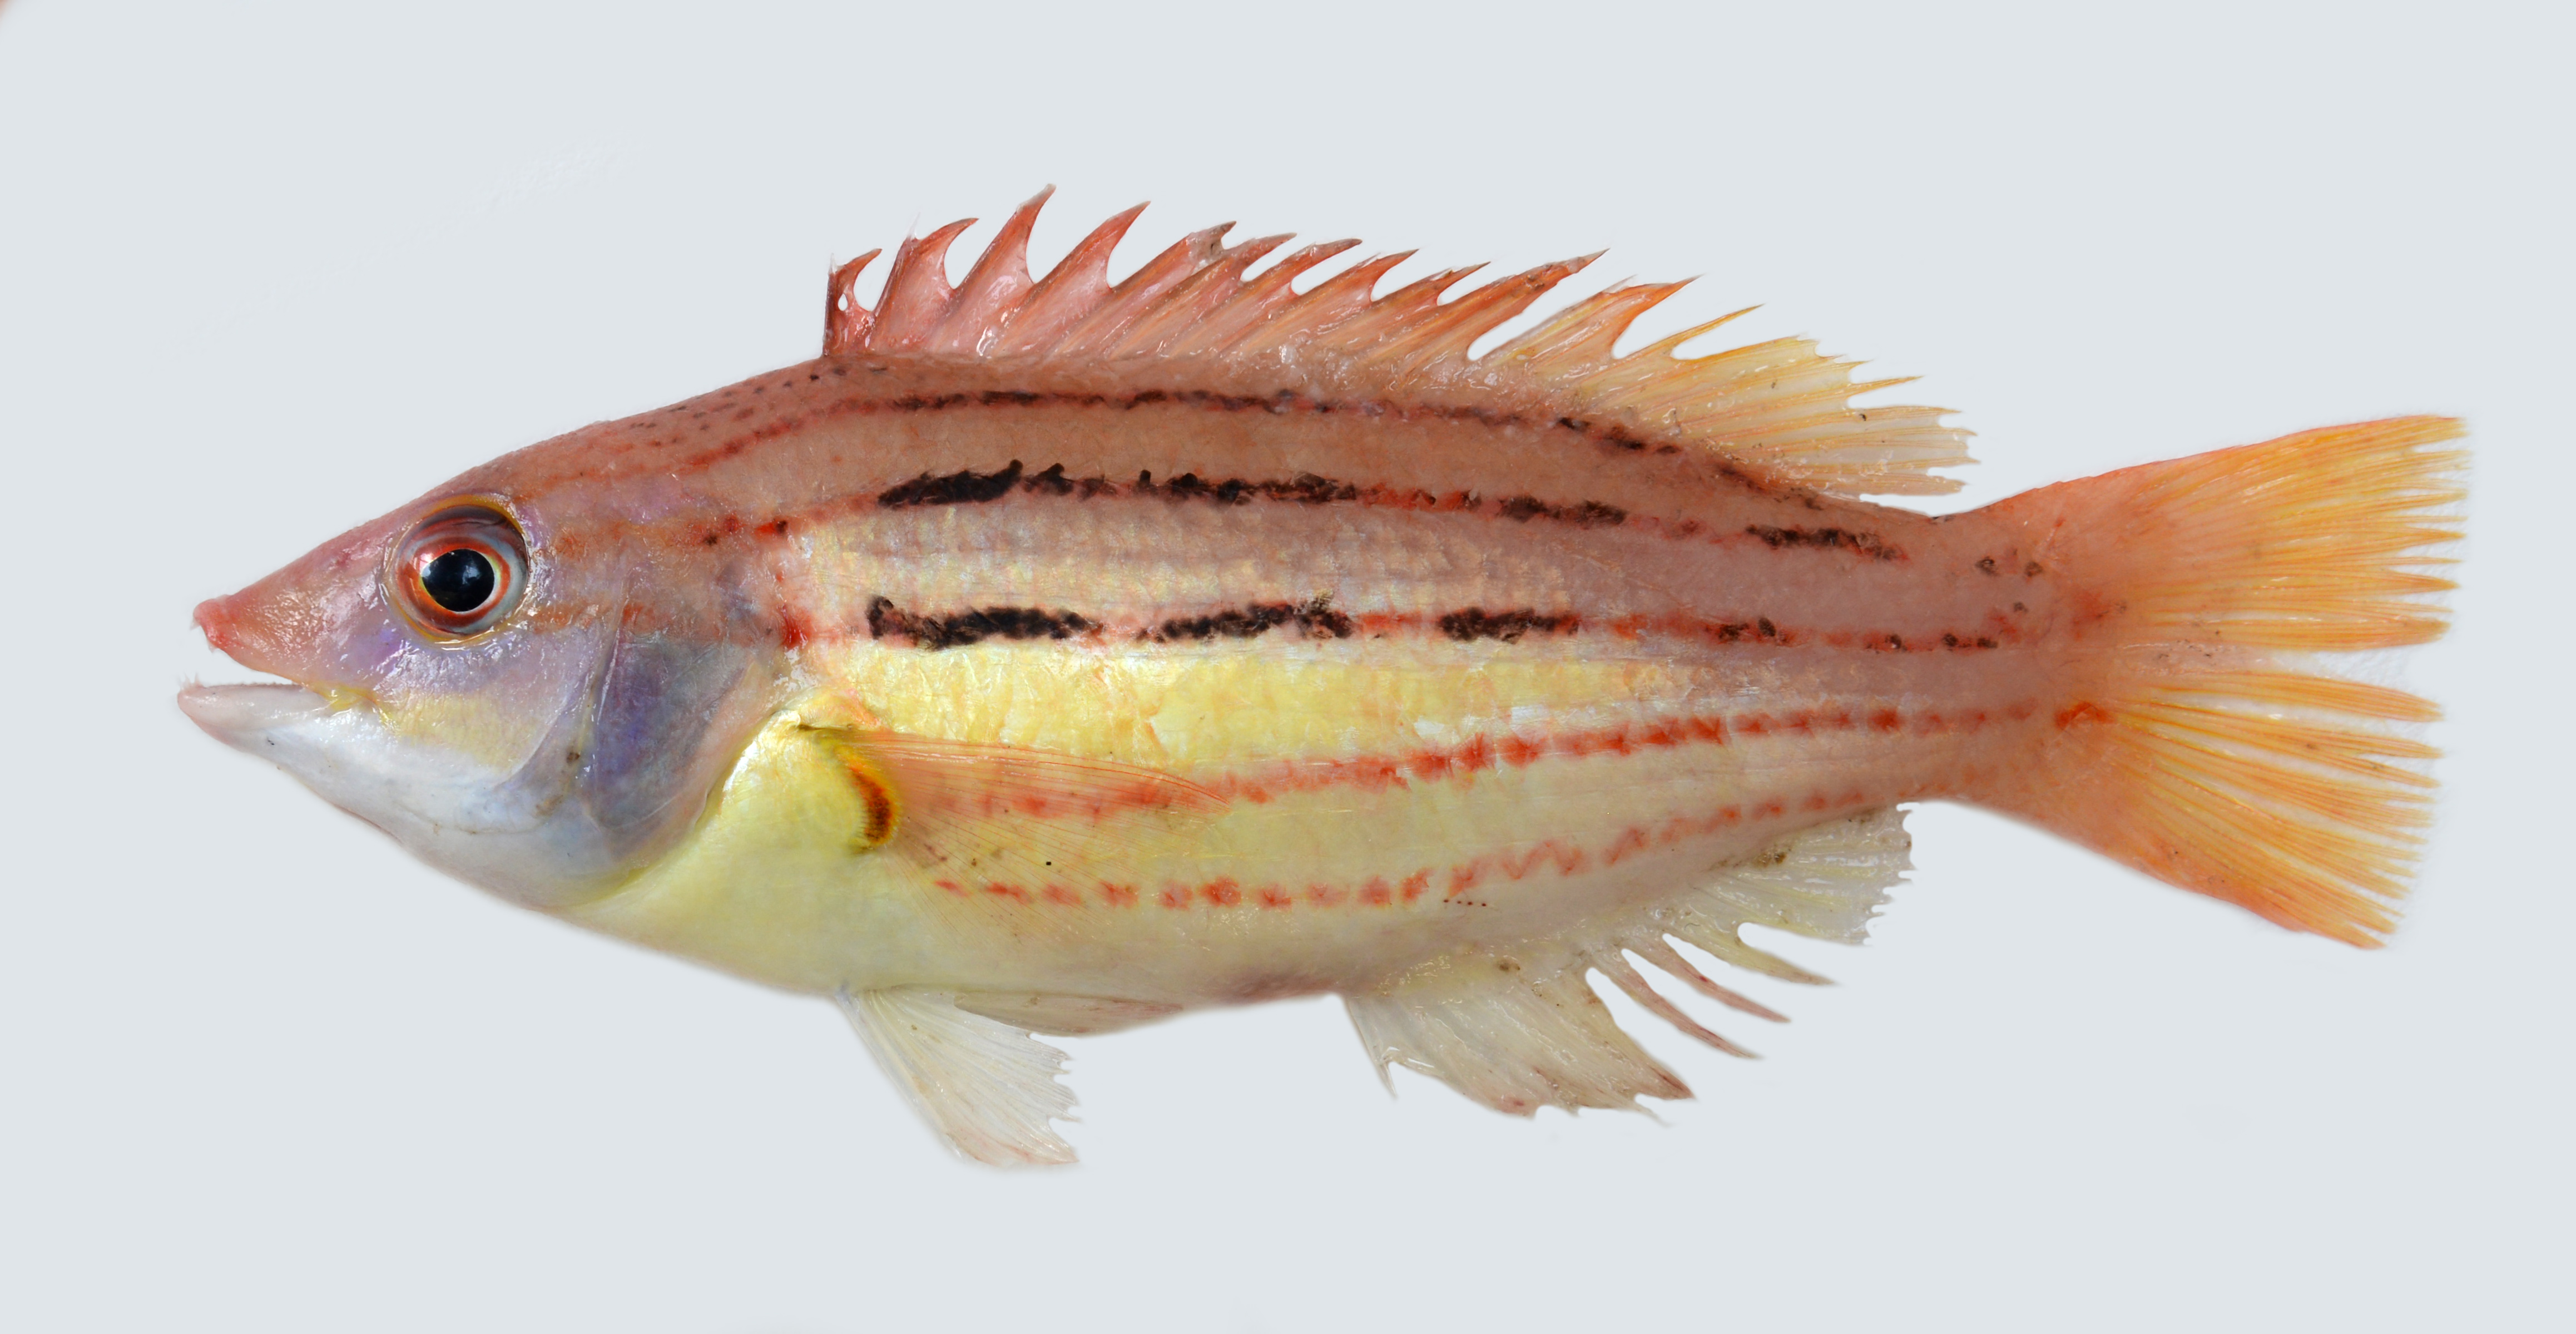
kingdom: Animalia
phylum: Chordata
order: Perciformes
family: Labridae
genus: Bodianus
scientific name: Bodianus leucosticticus
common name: Lined hogfish
